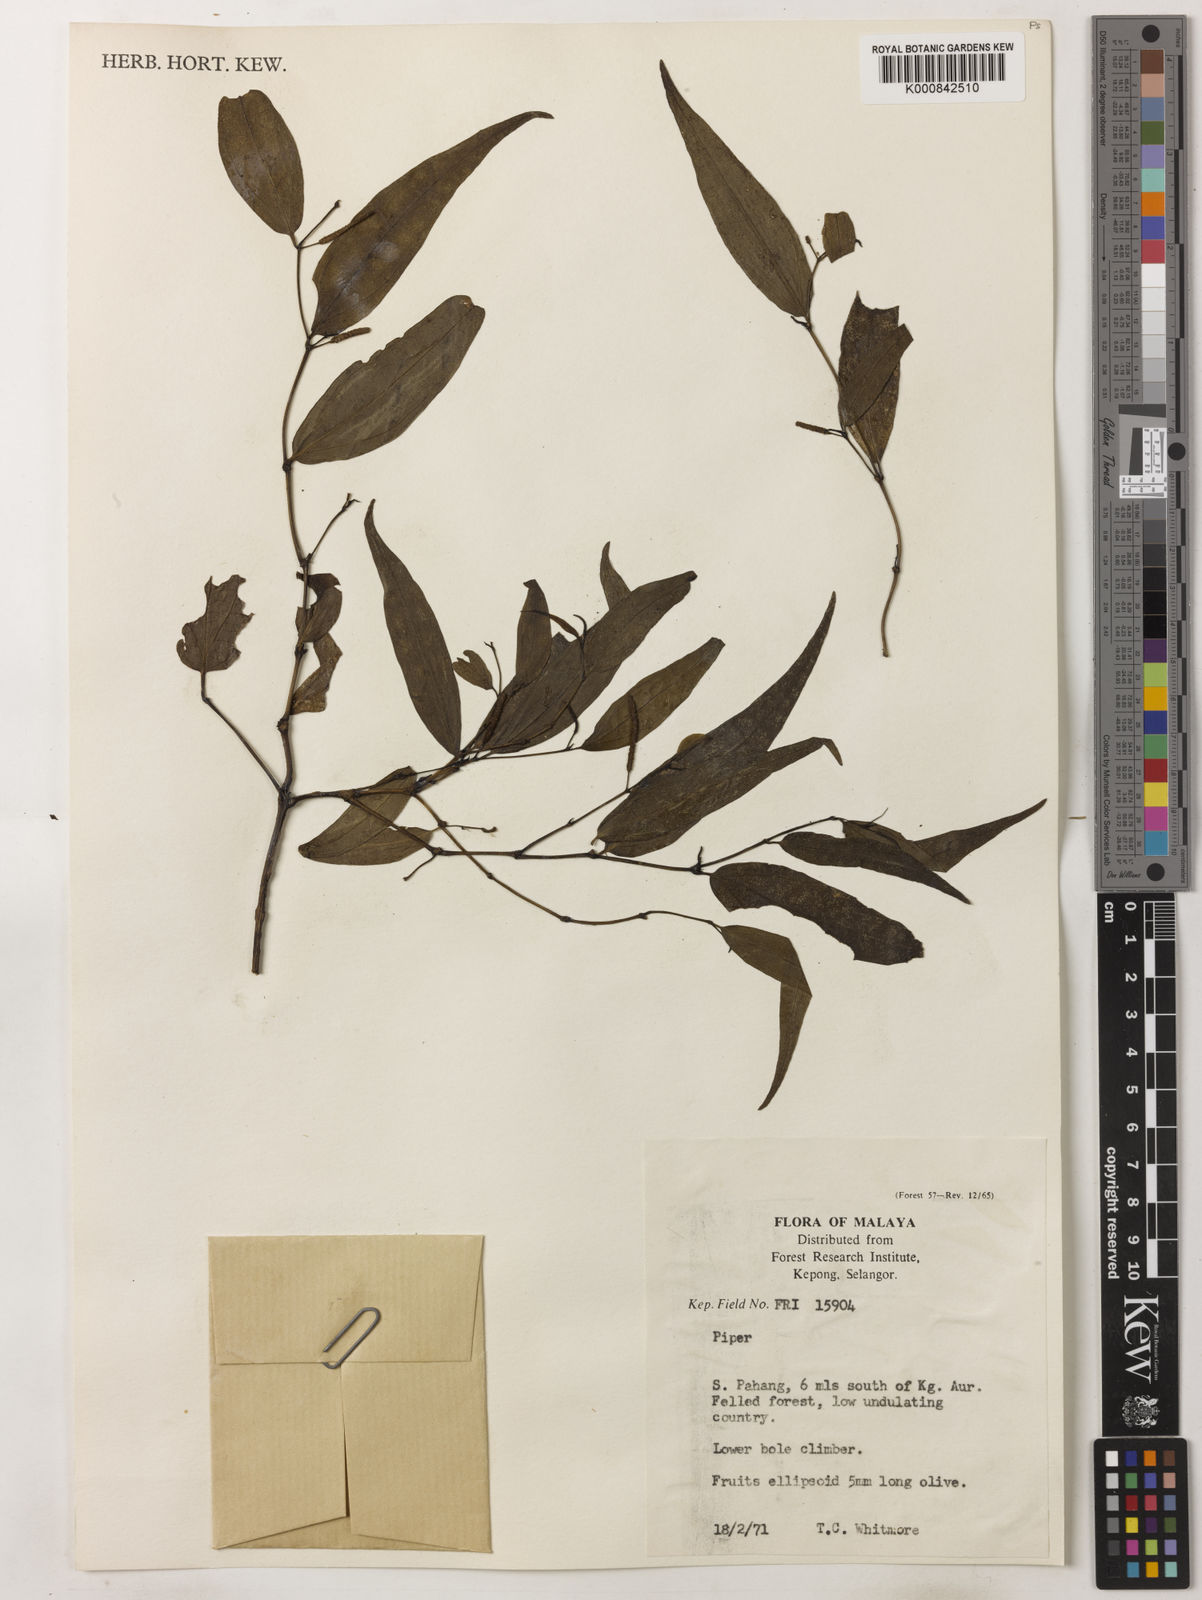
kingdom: Plantae
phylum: Tracheophyta
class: Magnoliopsida
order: Piperales
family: Piperaceae
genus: Piper
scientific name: Piper
